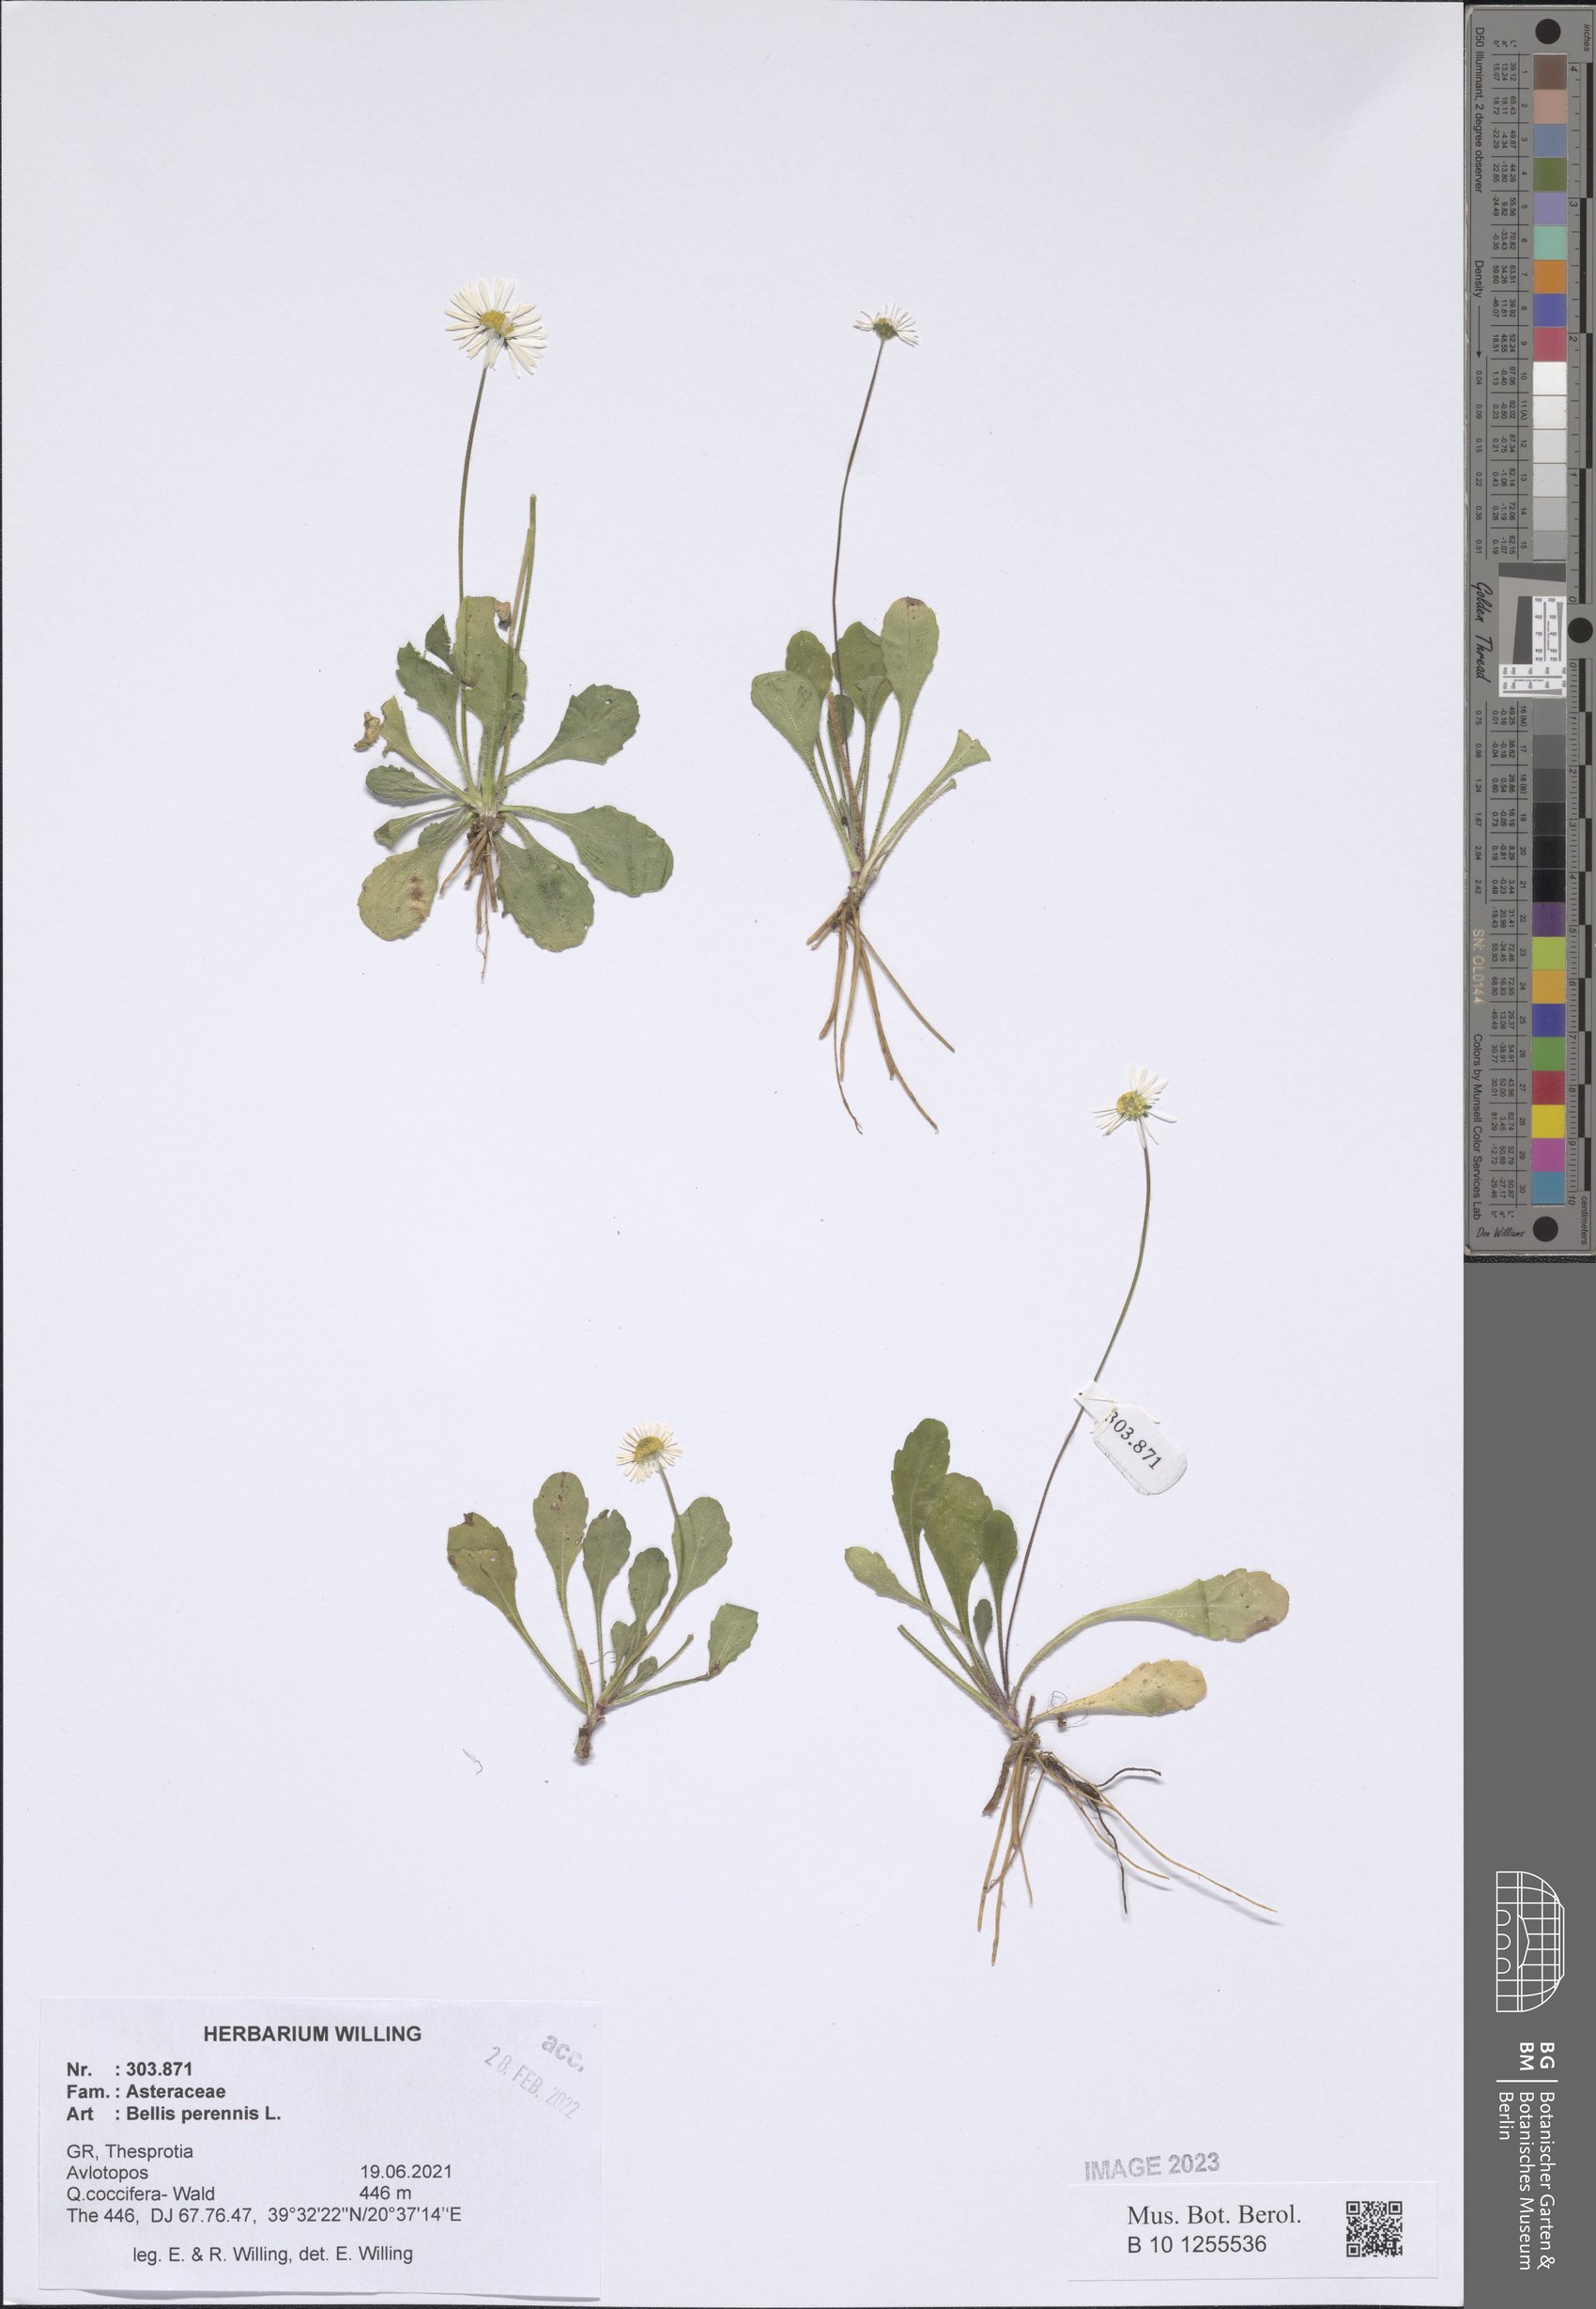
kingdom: Plantae
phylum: Tracheophyta
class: Magnoliopsida
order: Asterales
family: Asteraceae
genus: Bellis
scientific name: Bellis perennis
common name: Lawndaisy
